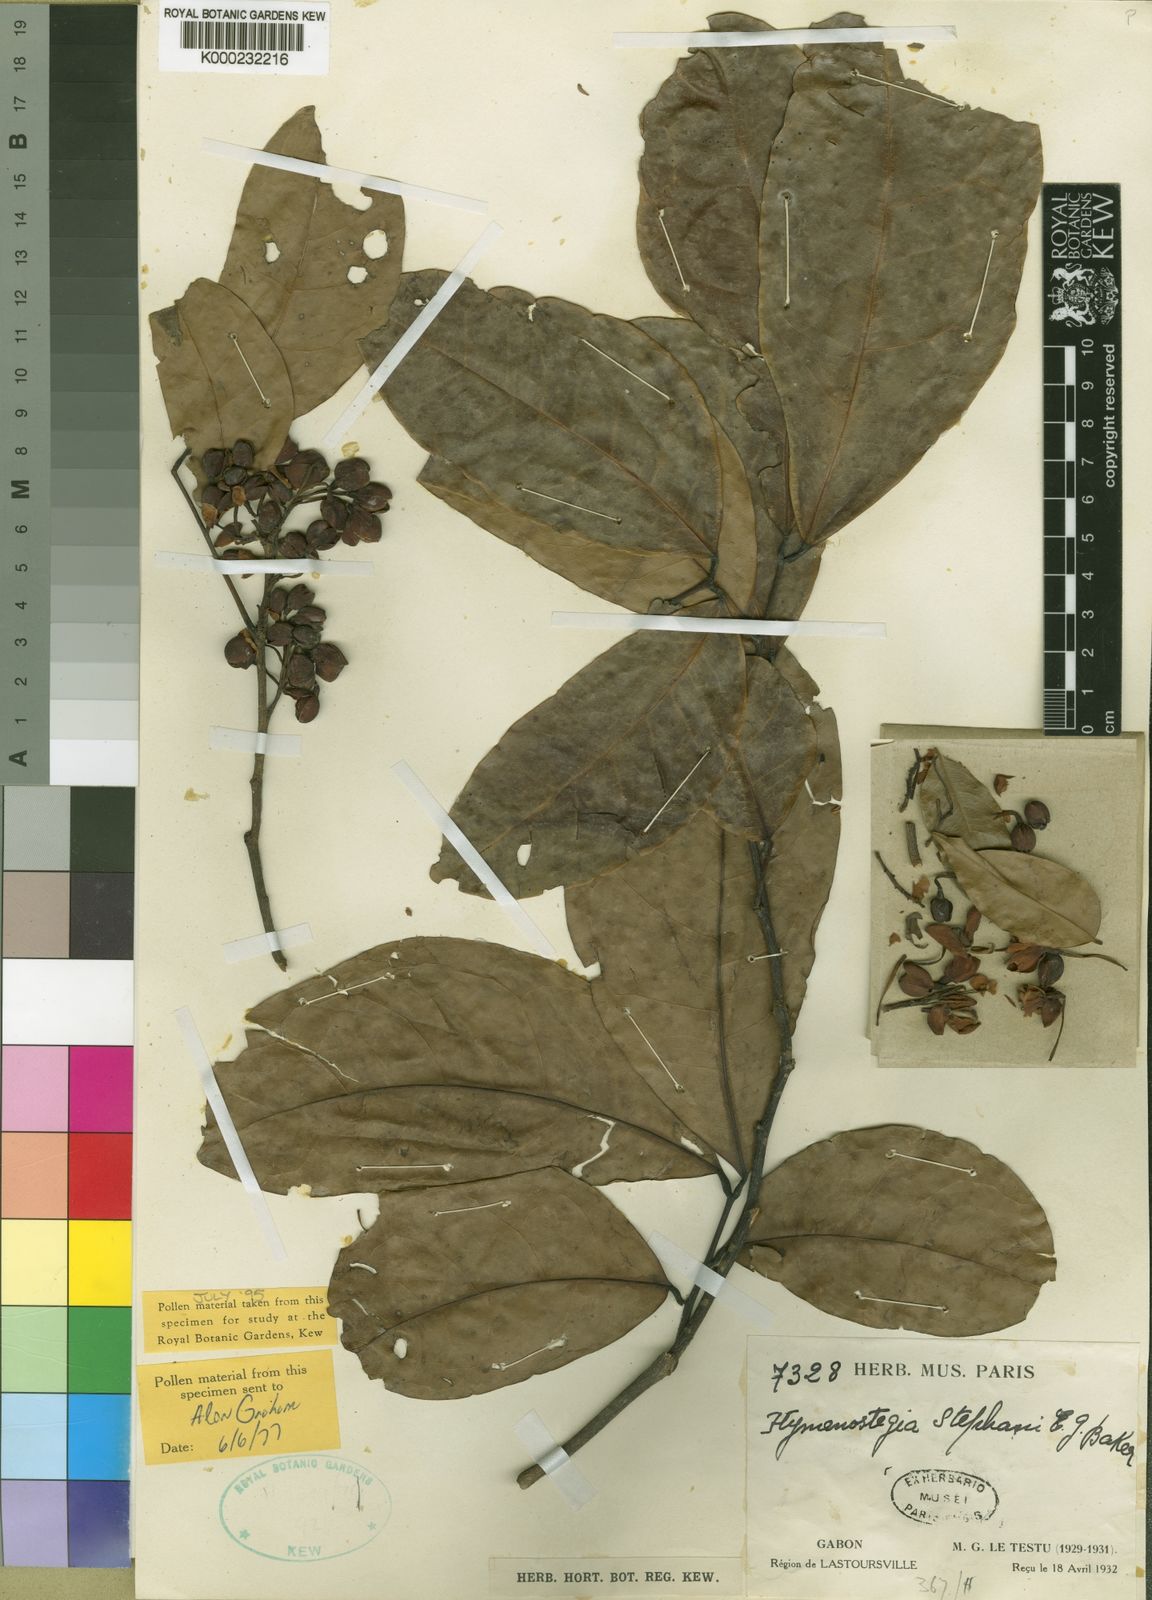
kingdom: Plantae
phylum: Tracheophyta
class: Magnoliopsida
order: Fabales
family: Fabaceae
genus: Neochevalierodendron
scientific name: Neochevalierodendron
